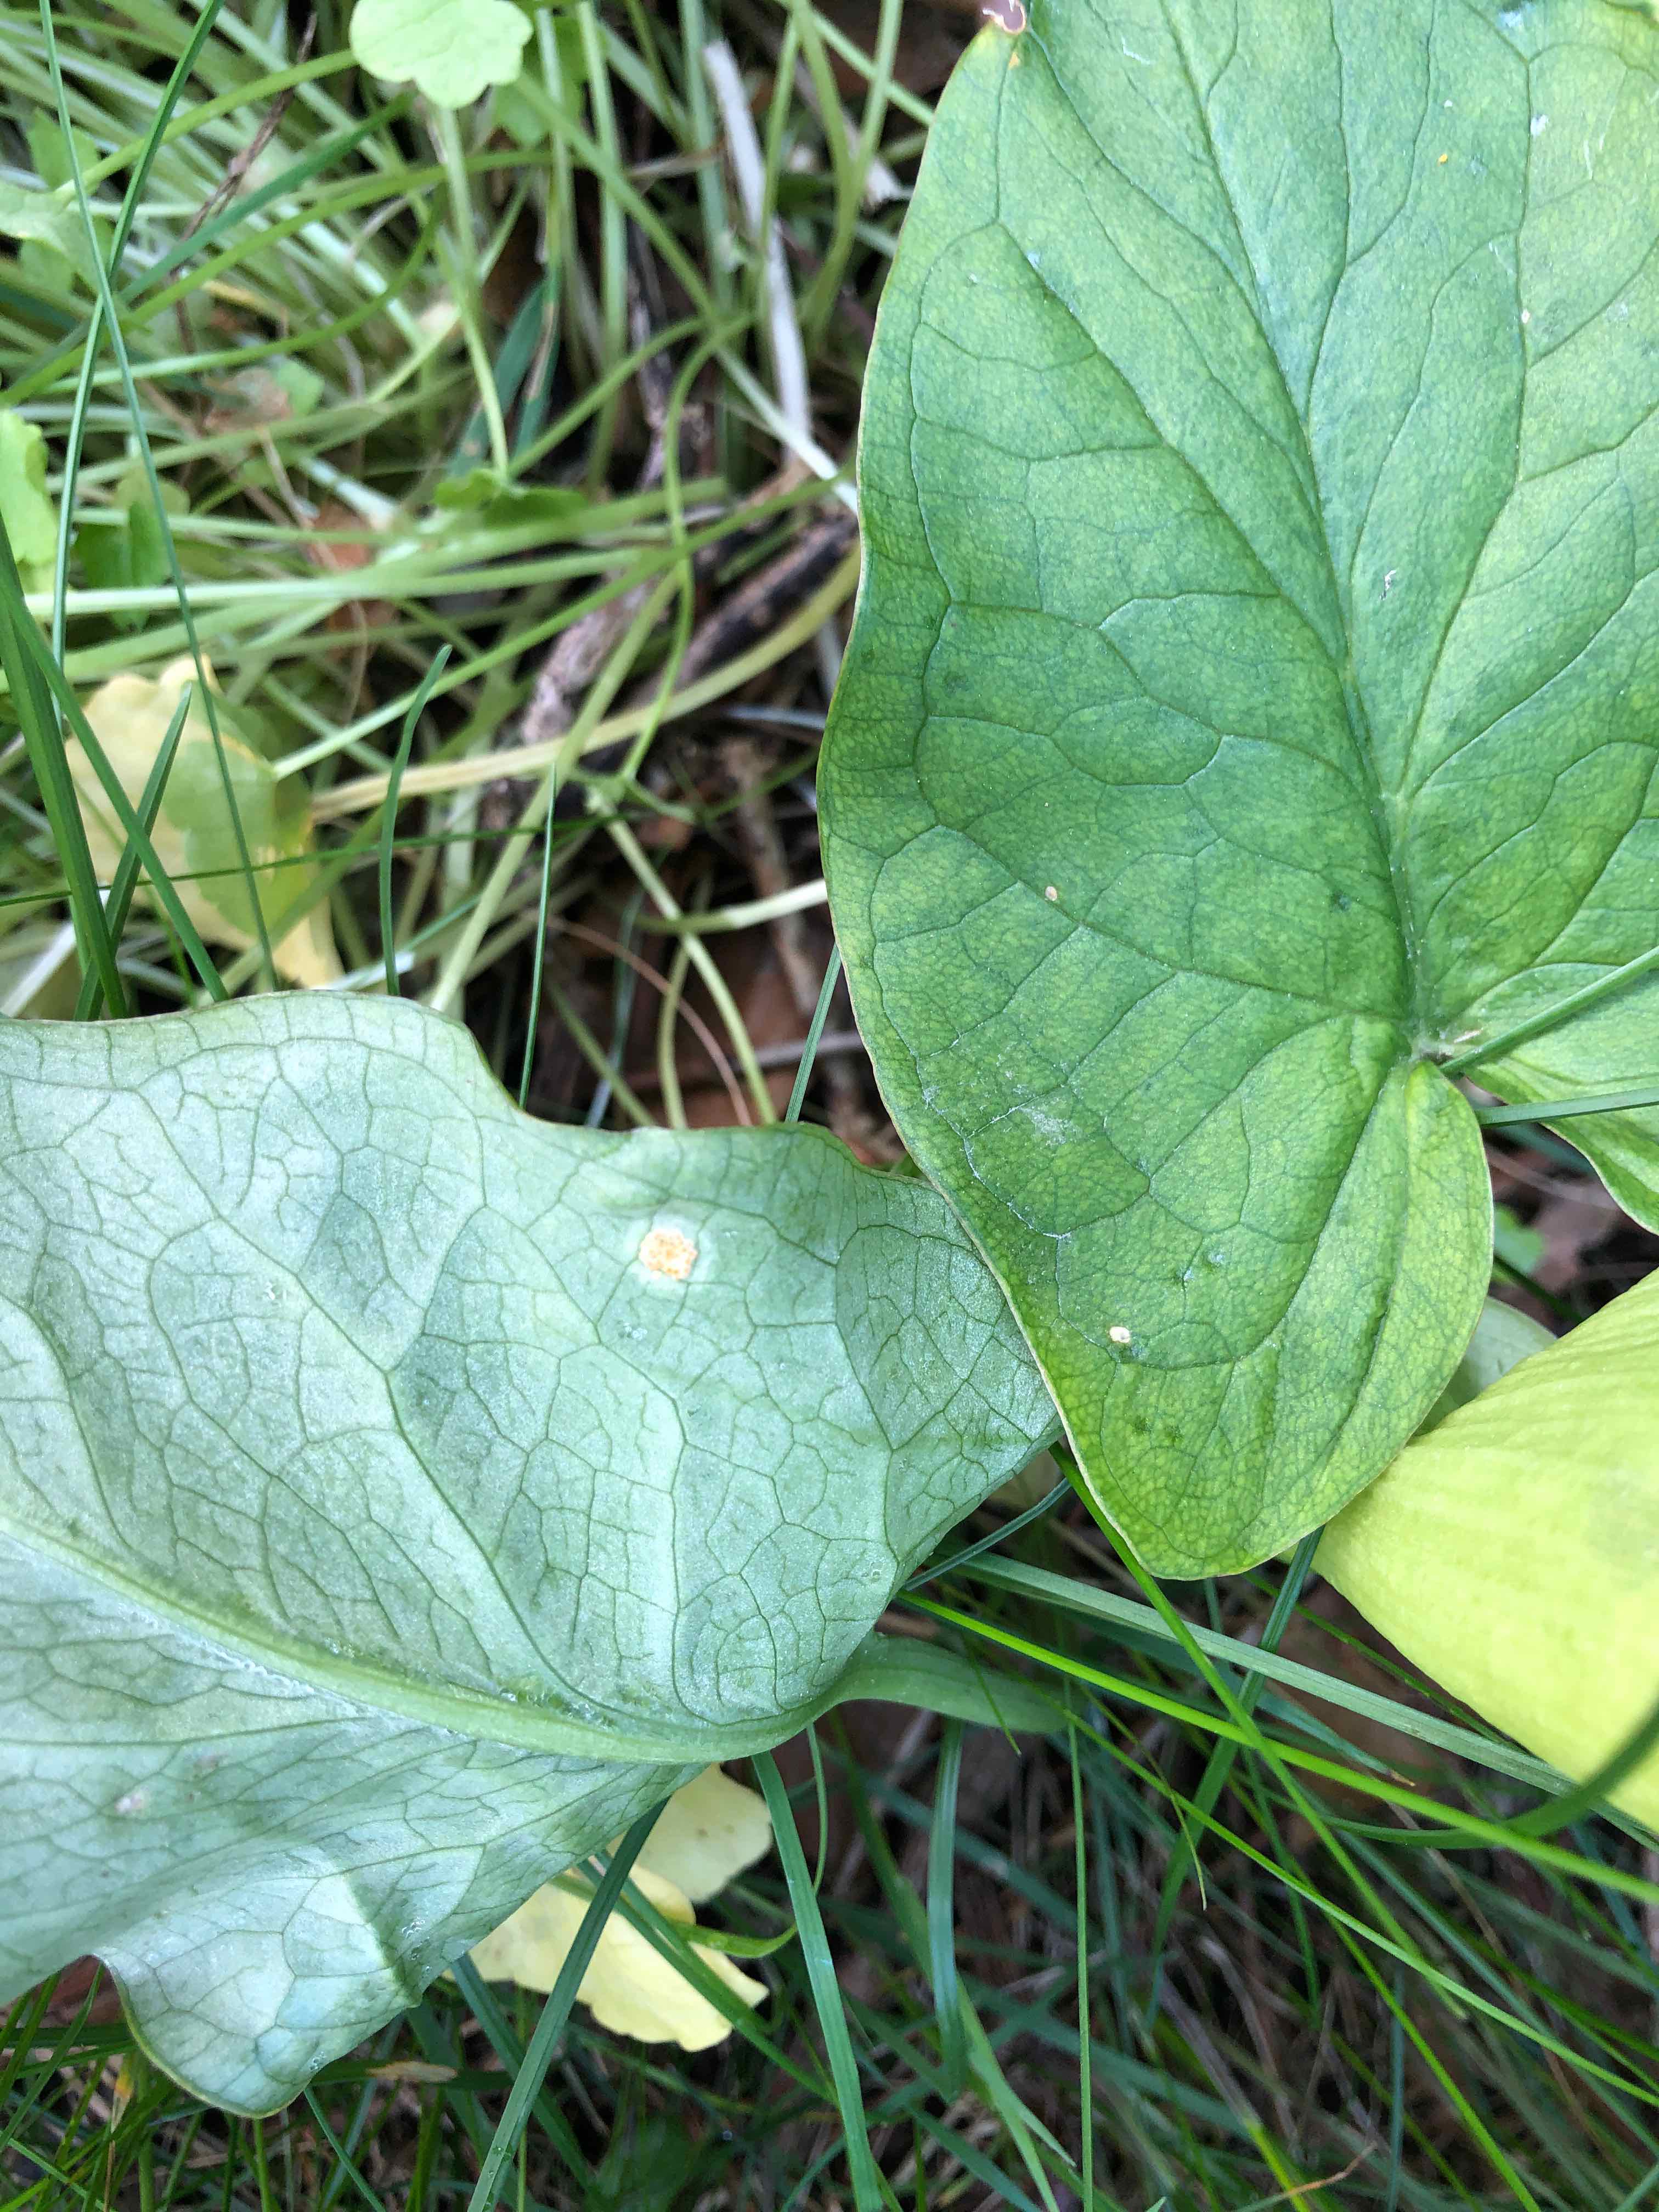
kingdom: Fungi
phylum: Basidiomycota
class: Pucciniomycetes
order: Pucciniales
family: Pucciniaceae
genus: Puccinia
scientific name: Puccinia sessilis
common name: Arum rust
